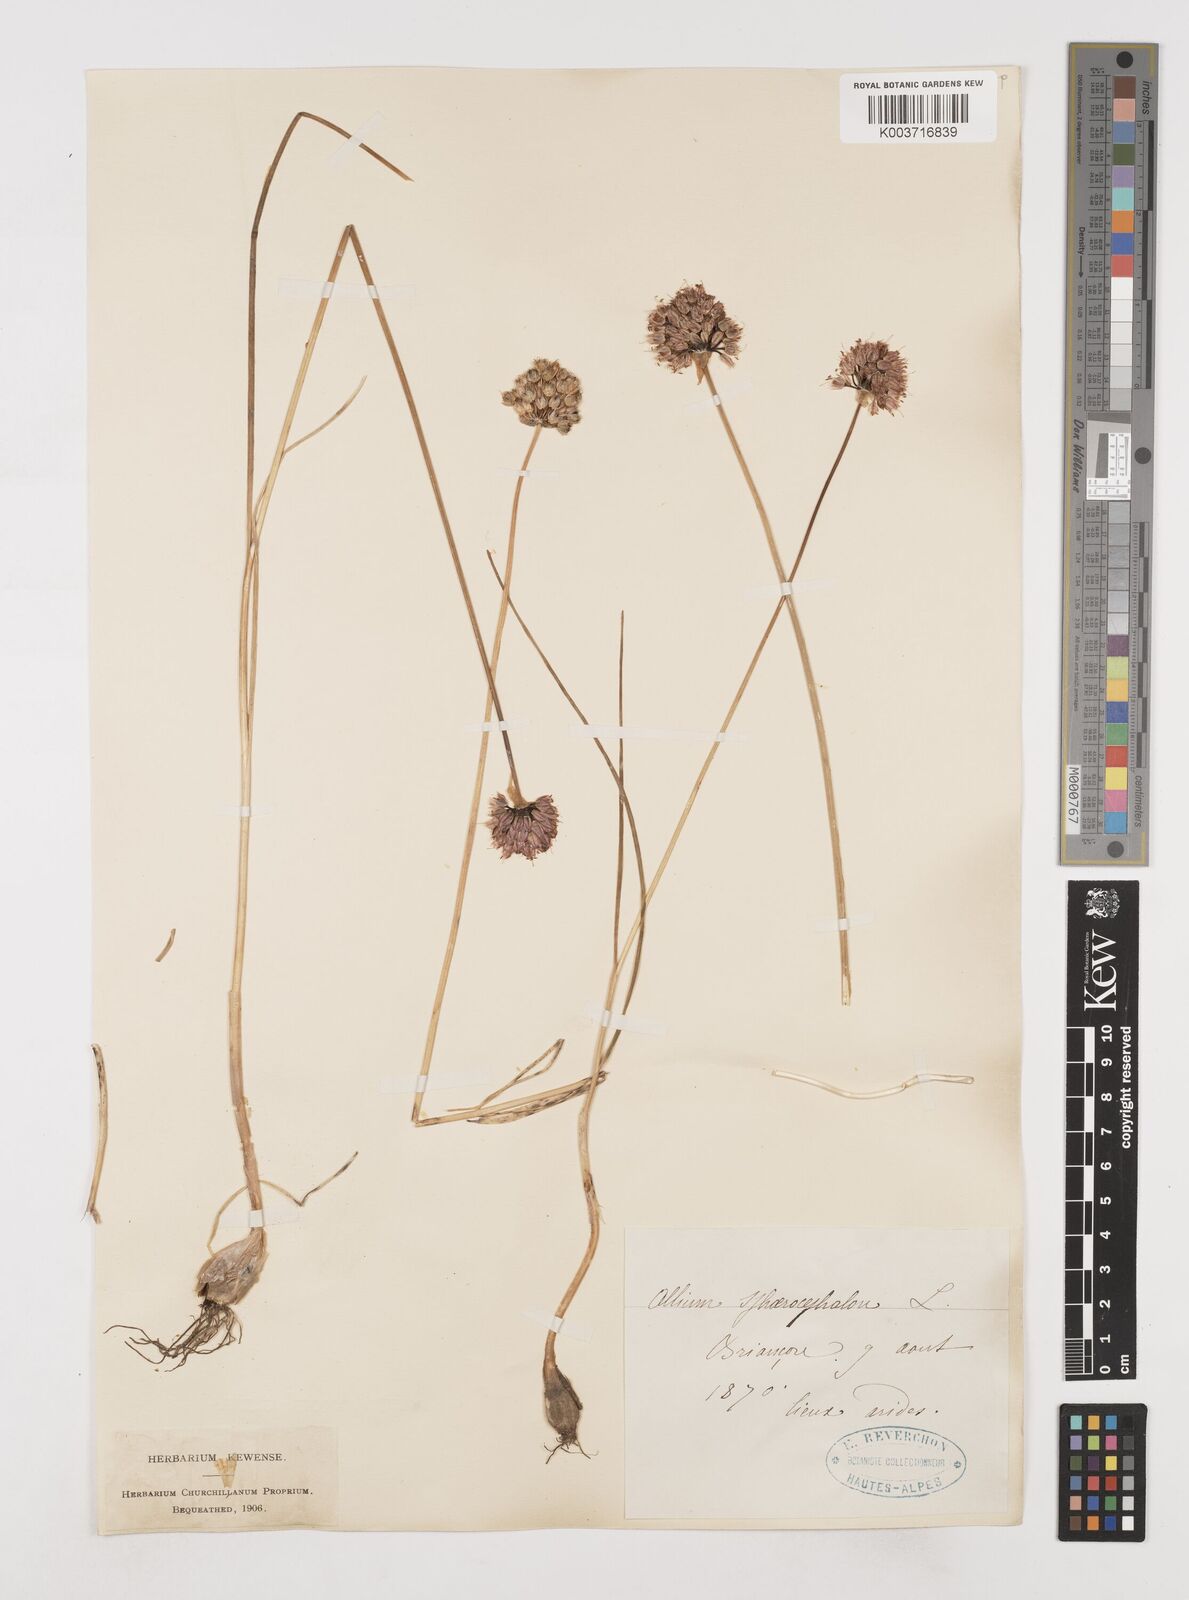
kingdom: Plantae
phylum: Tracheophyta
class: Liliopsida
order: Asparagales
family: Amaryllidaceae
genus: Allium
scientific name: Allium sphaerocephalon
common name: Round-headed leek
